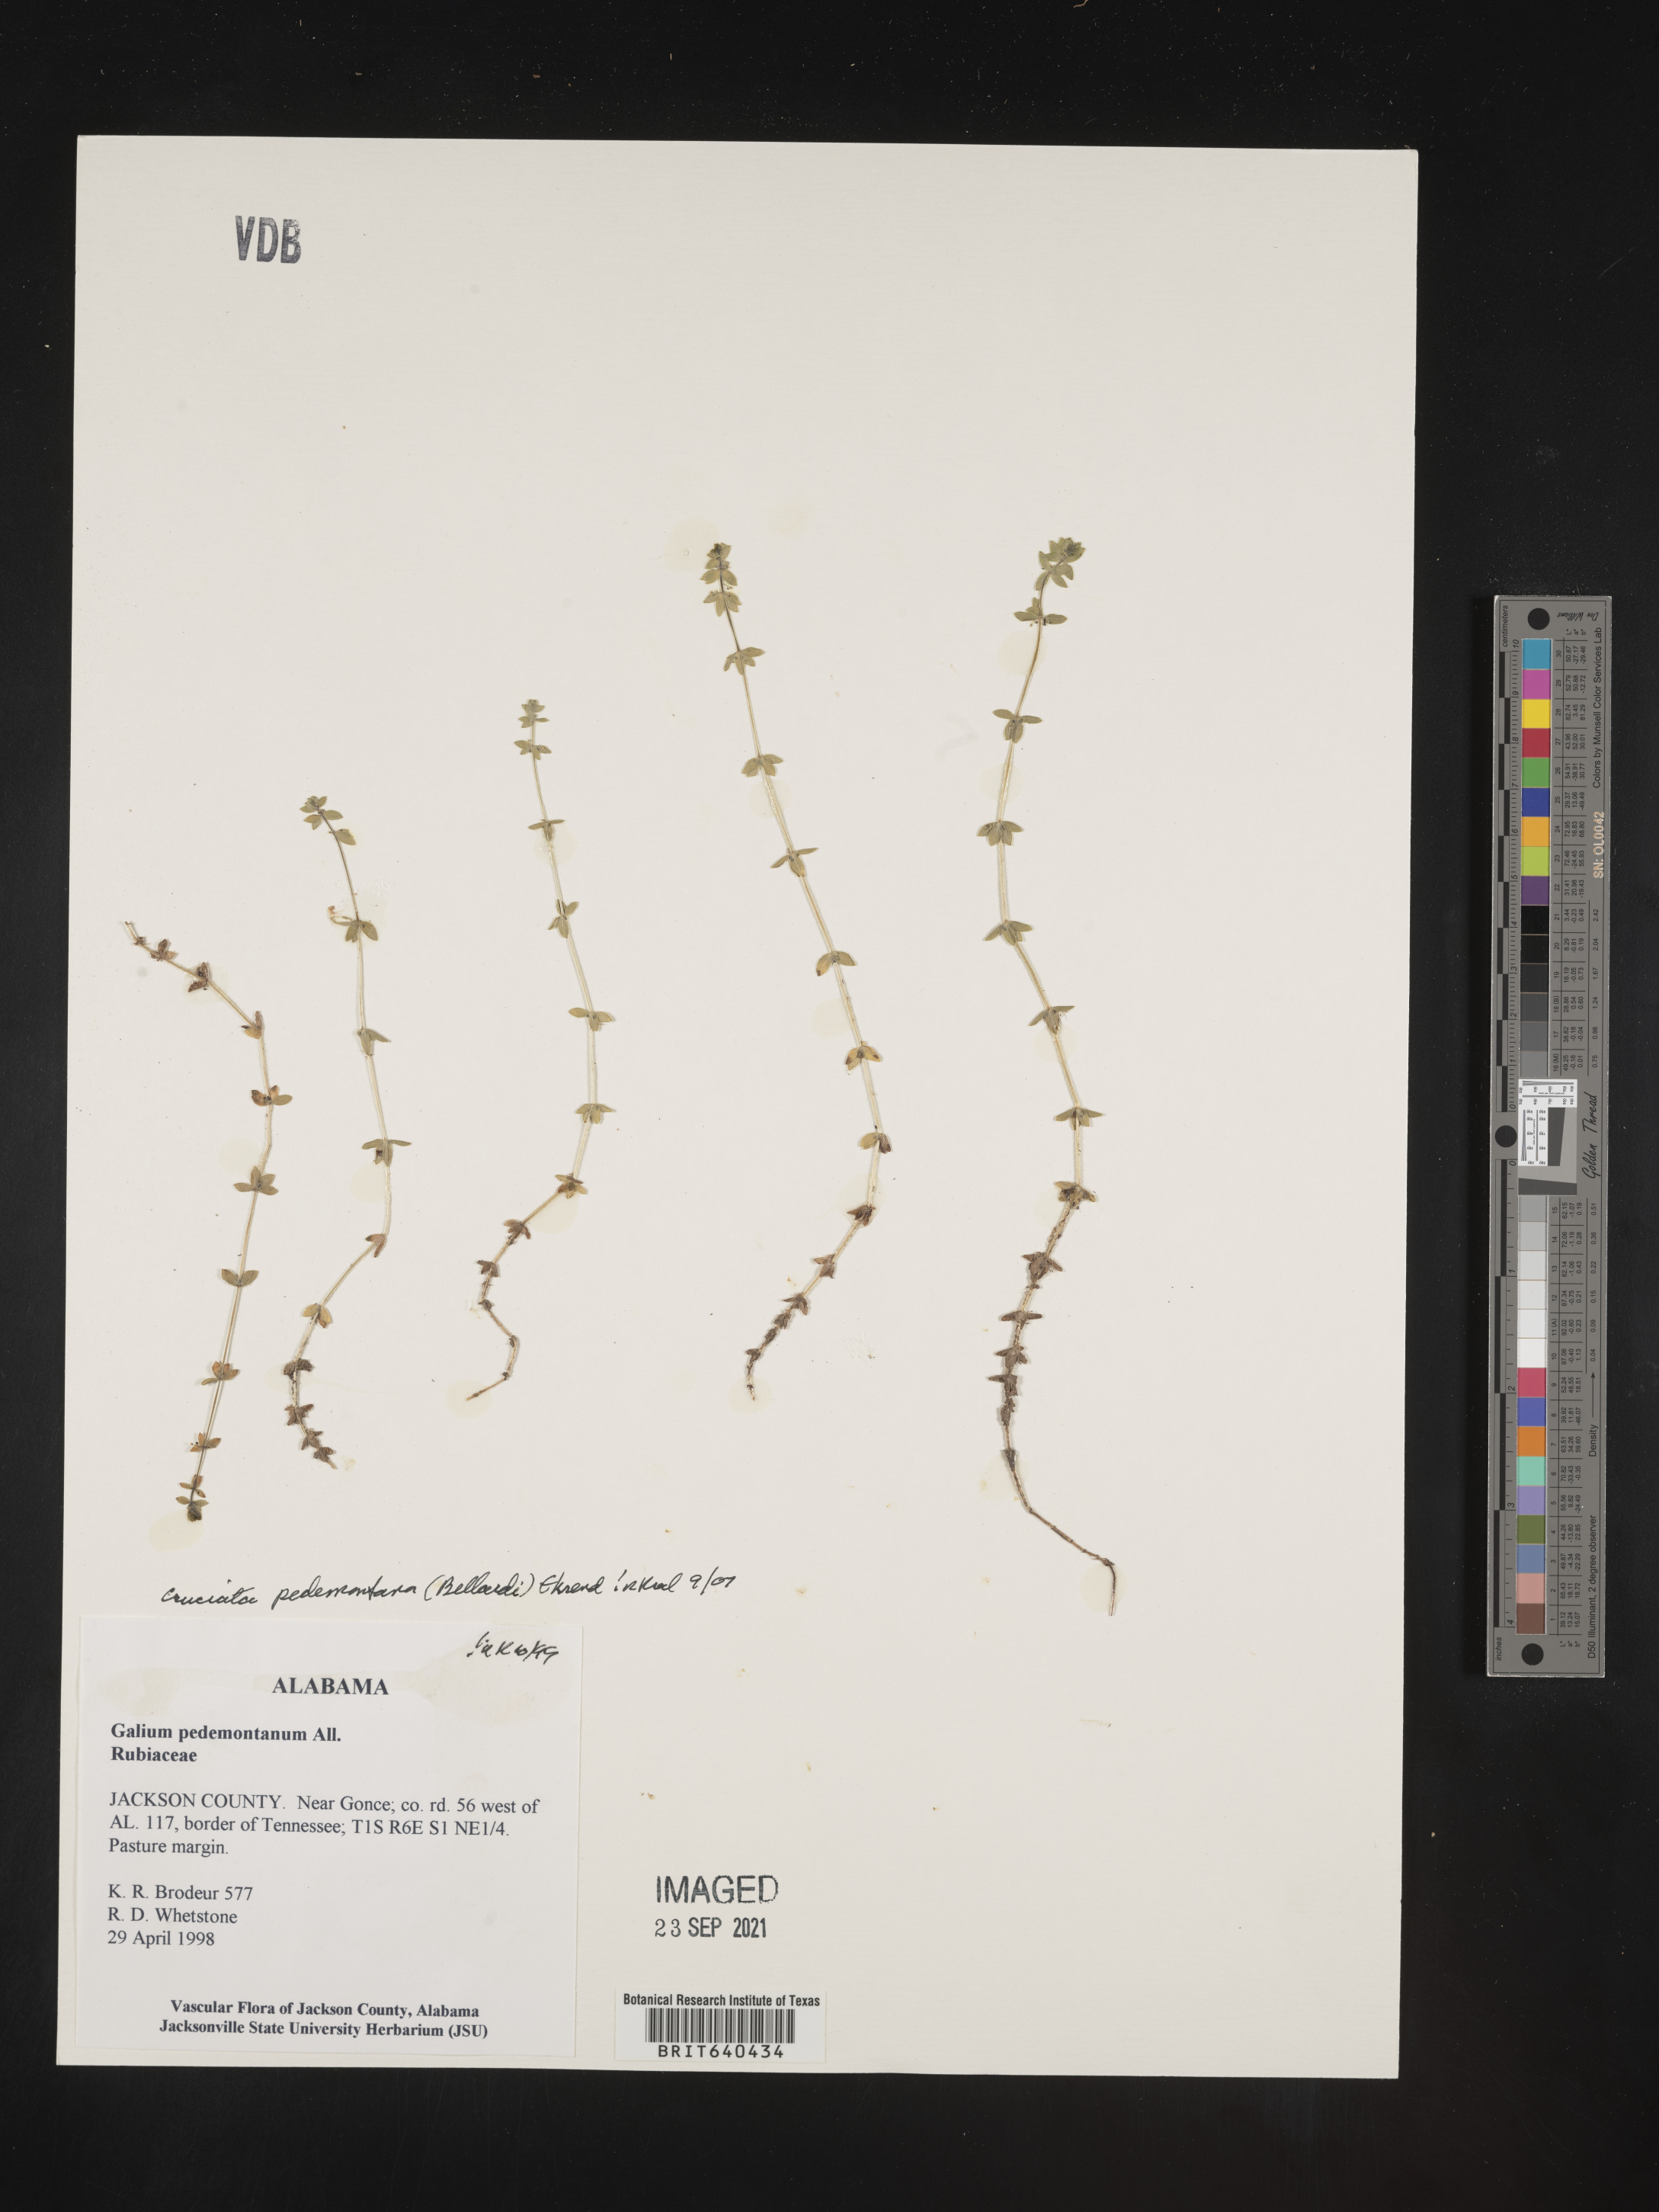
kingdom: Plantae
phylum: Tracheophyta
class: Magnoliopsida
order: Gentianales
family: Rubiaceae
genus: Cruciata
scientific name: Cruciata
